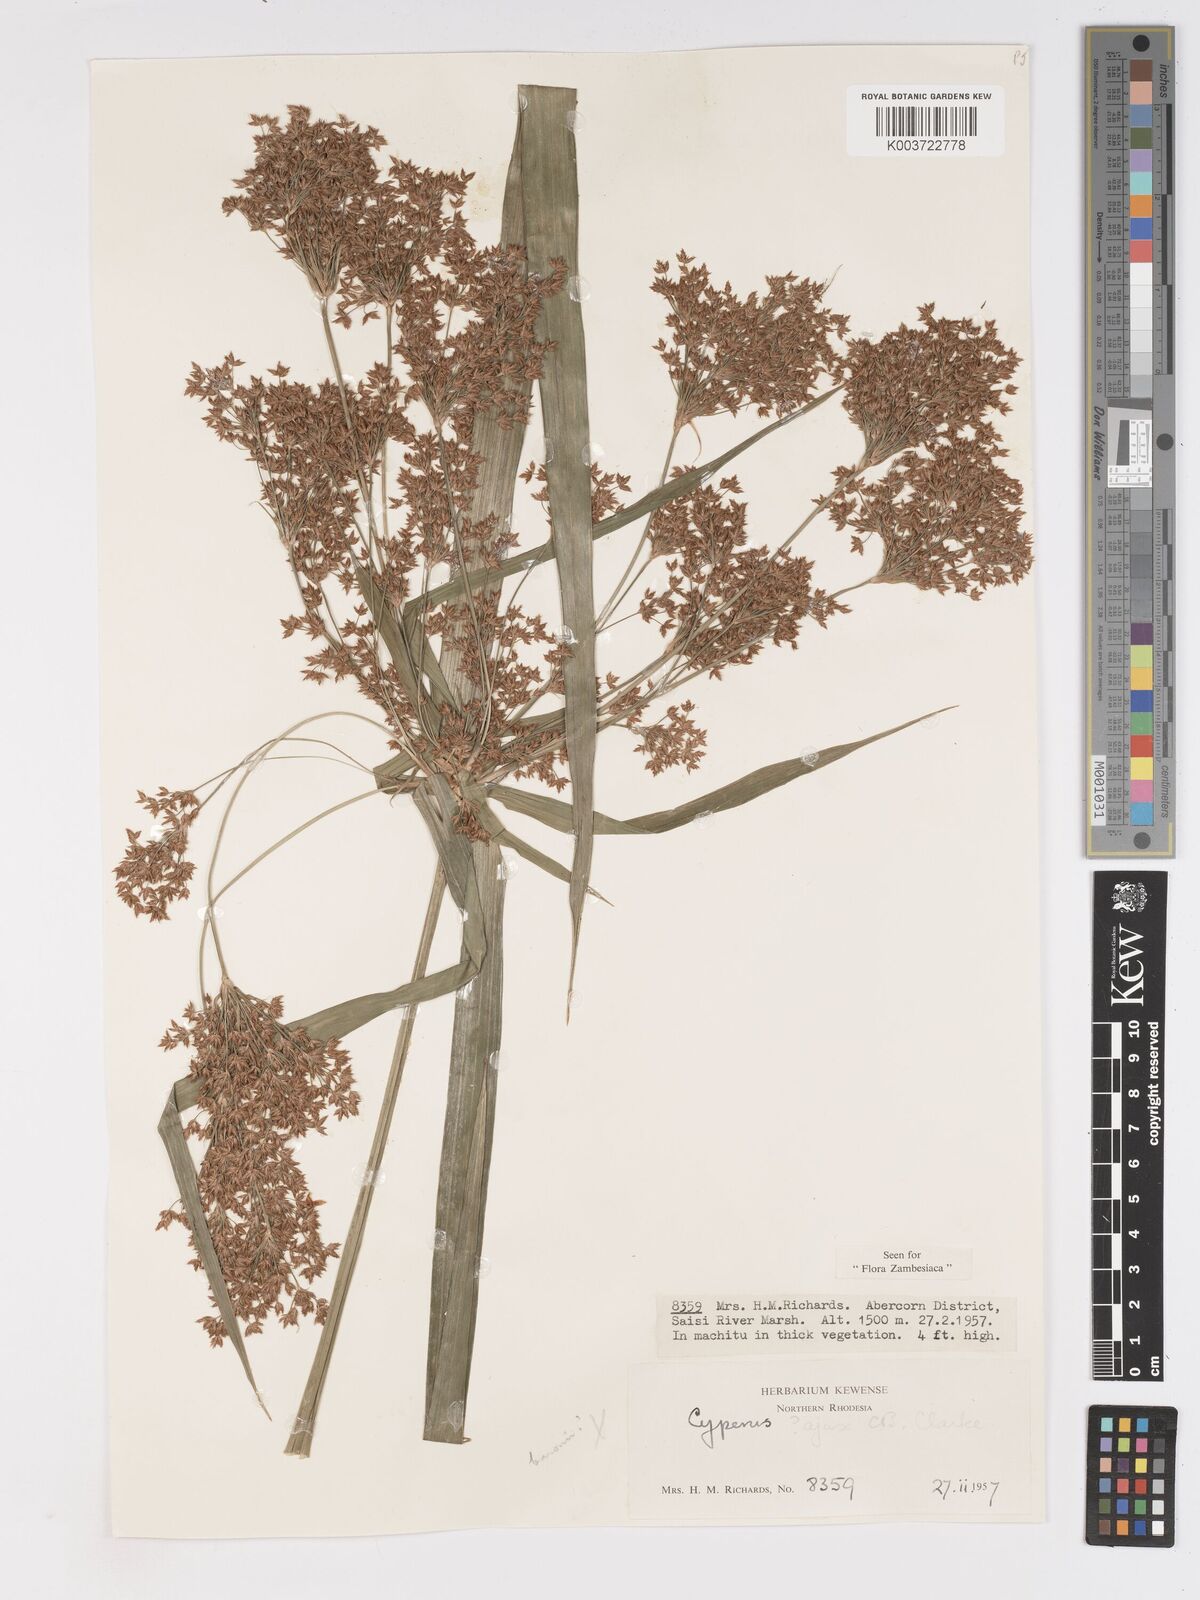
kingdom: Plantae
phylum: Tracheophyta
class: Liliopsida
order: Poales
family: Cyperaceae
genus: Cyperus
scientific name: Cyperus ajax
